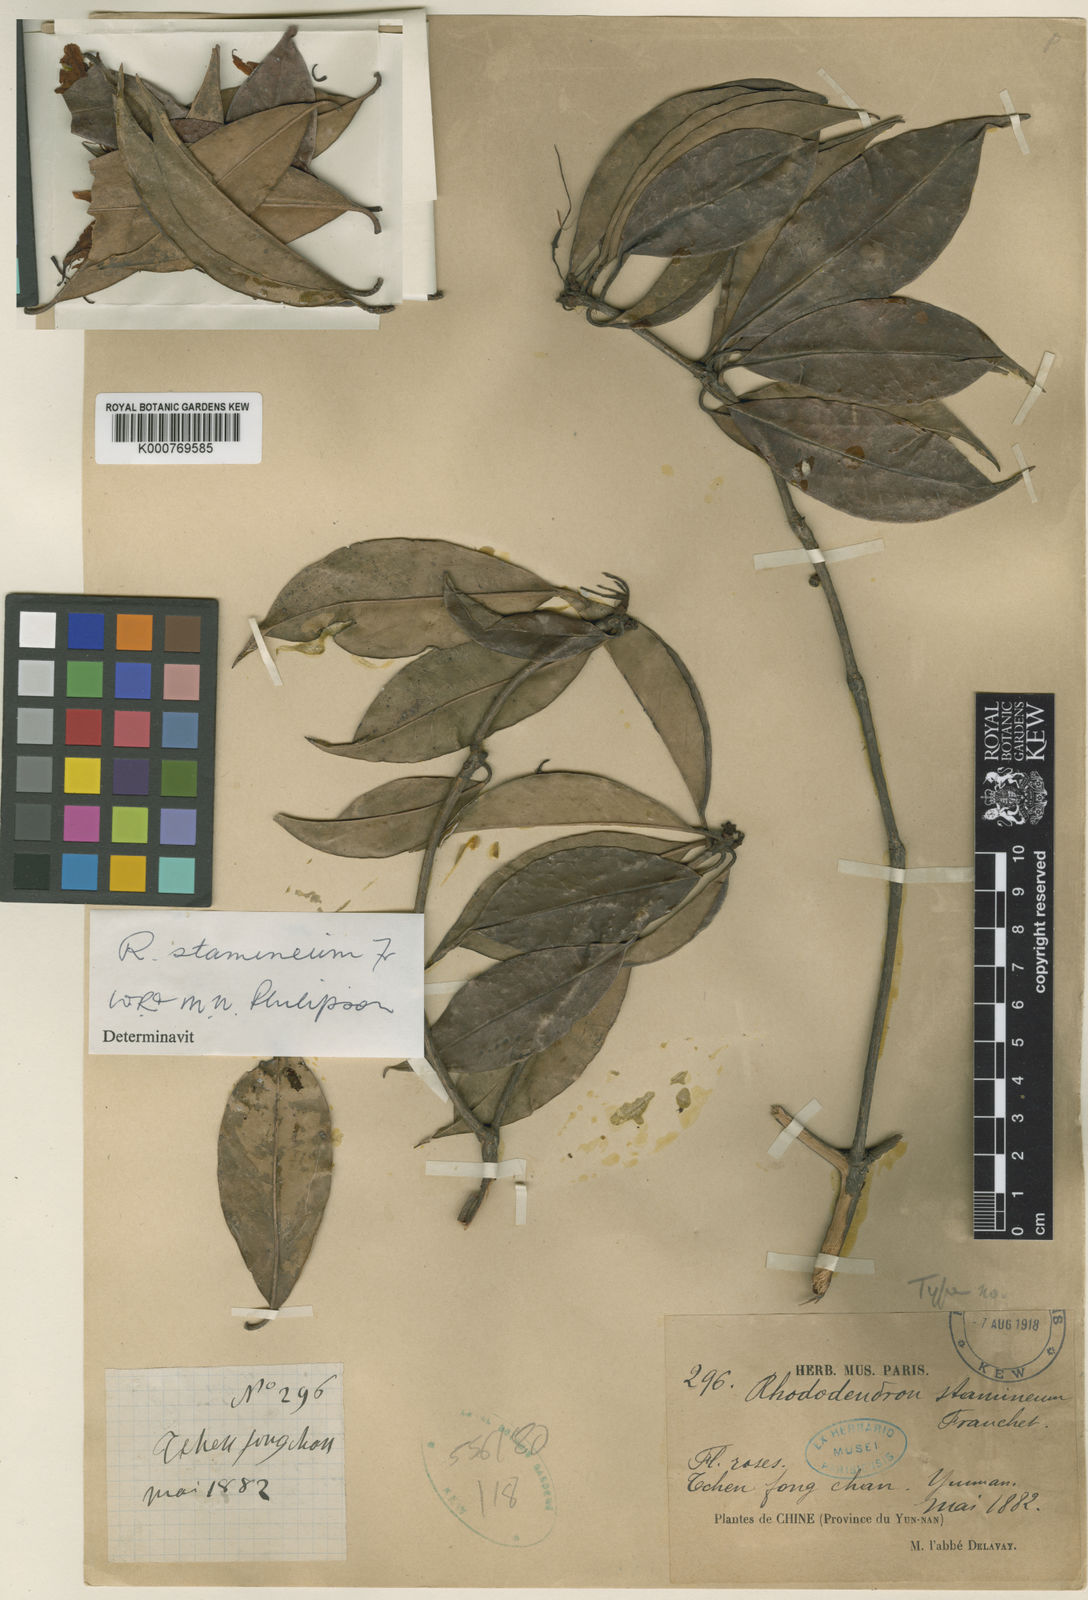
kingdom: Plantae
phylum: Tracheophyta
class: Magnoliopsida
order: Ericales
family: Ericaceae
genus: Rhododendron
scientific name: Rhododendron stamineum
